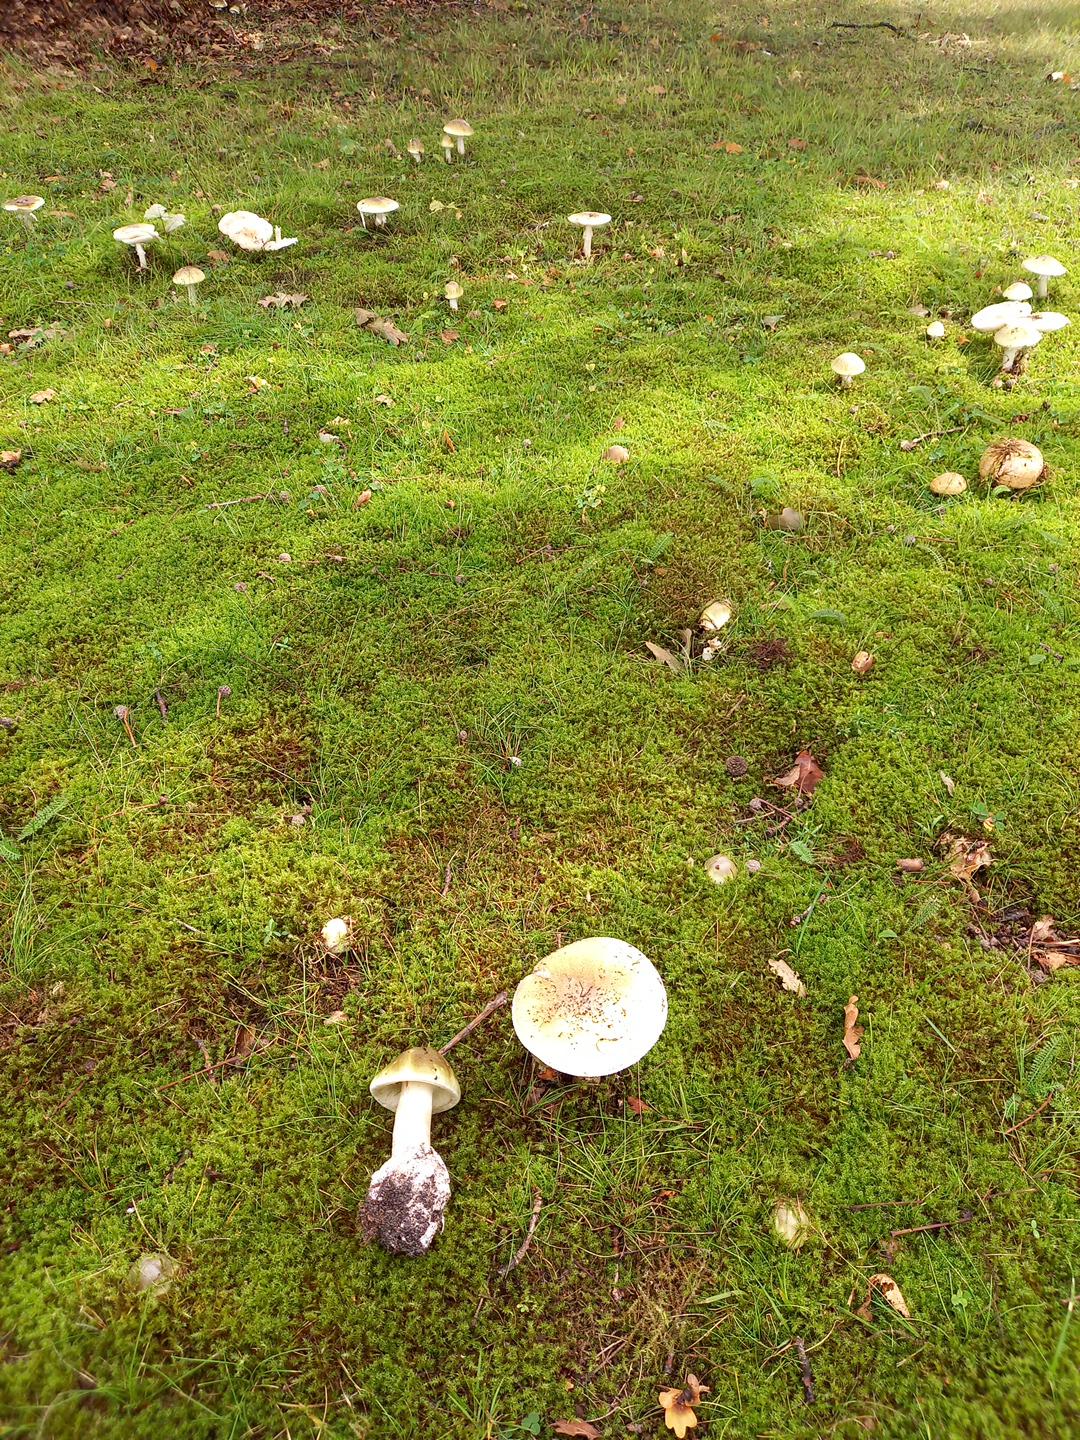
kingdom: Fungi
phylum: Basidiomycota
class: Agaricomycetes
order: Agaricales
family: Amanitaceae
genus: Amanita
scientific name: Amanita phalloides
